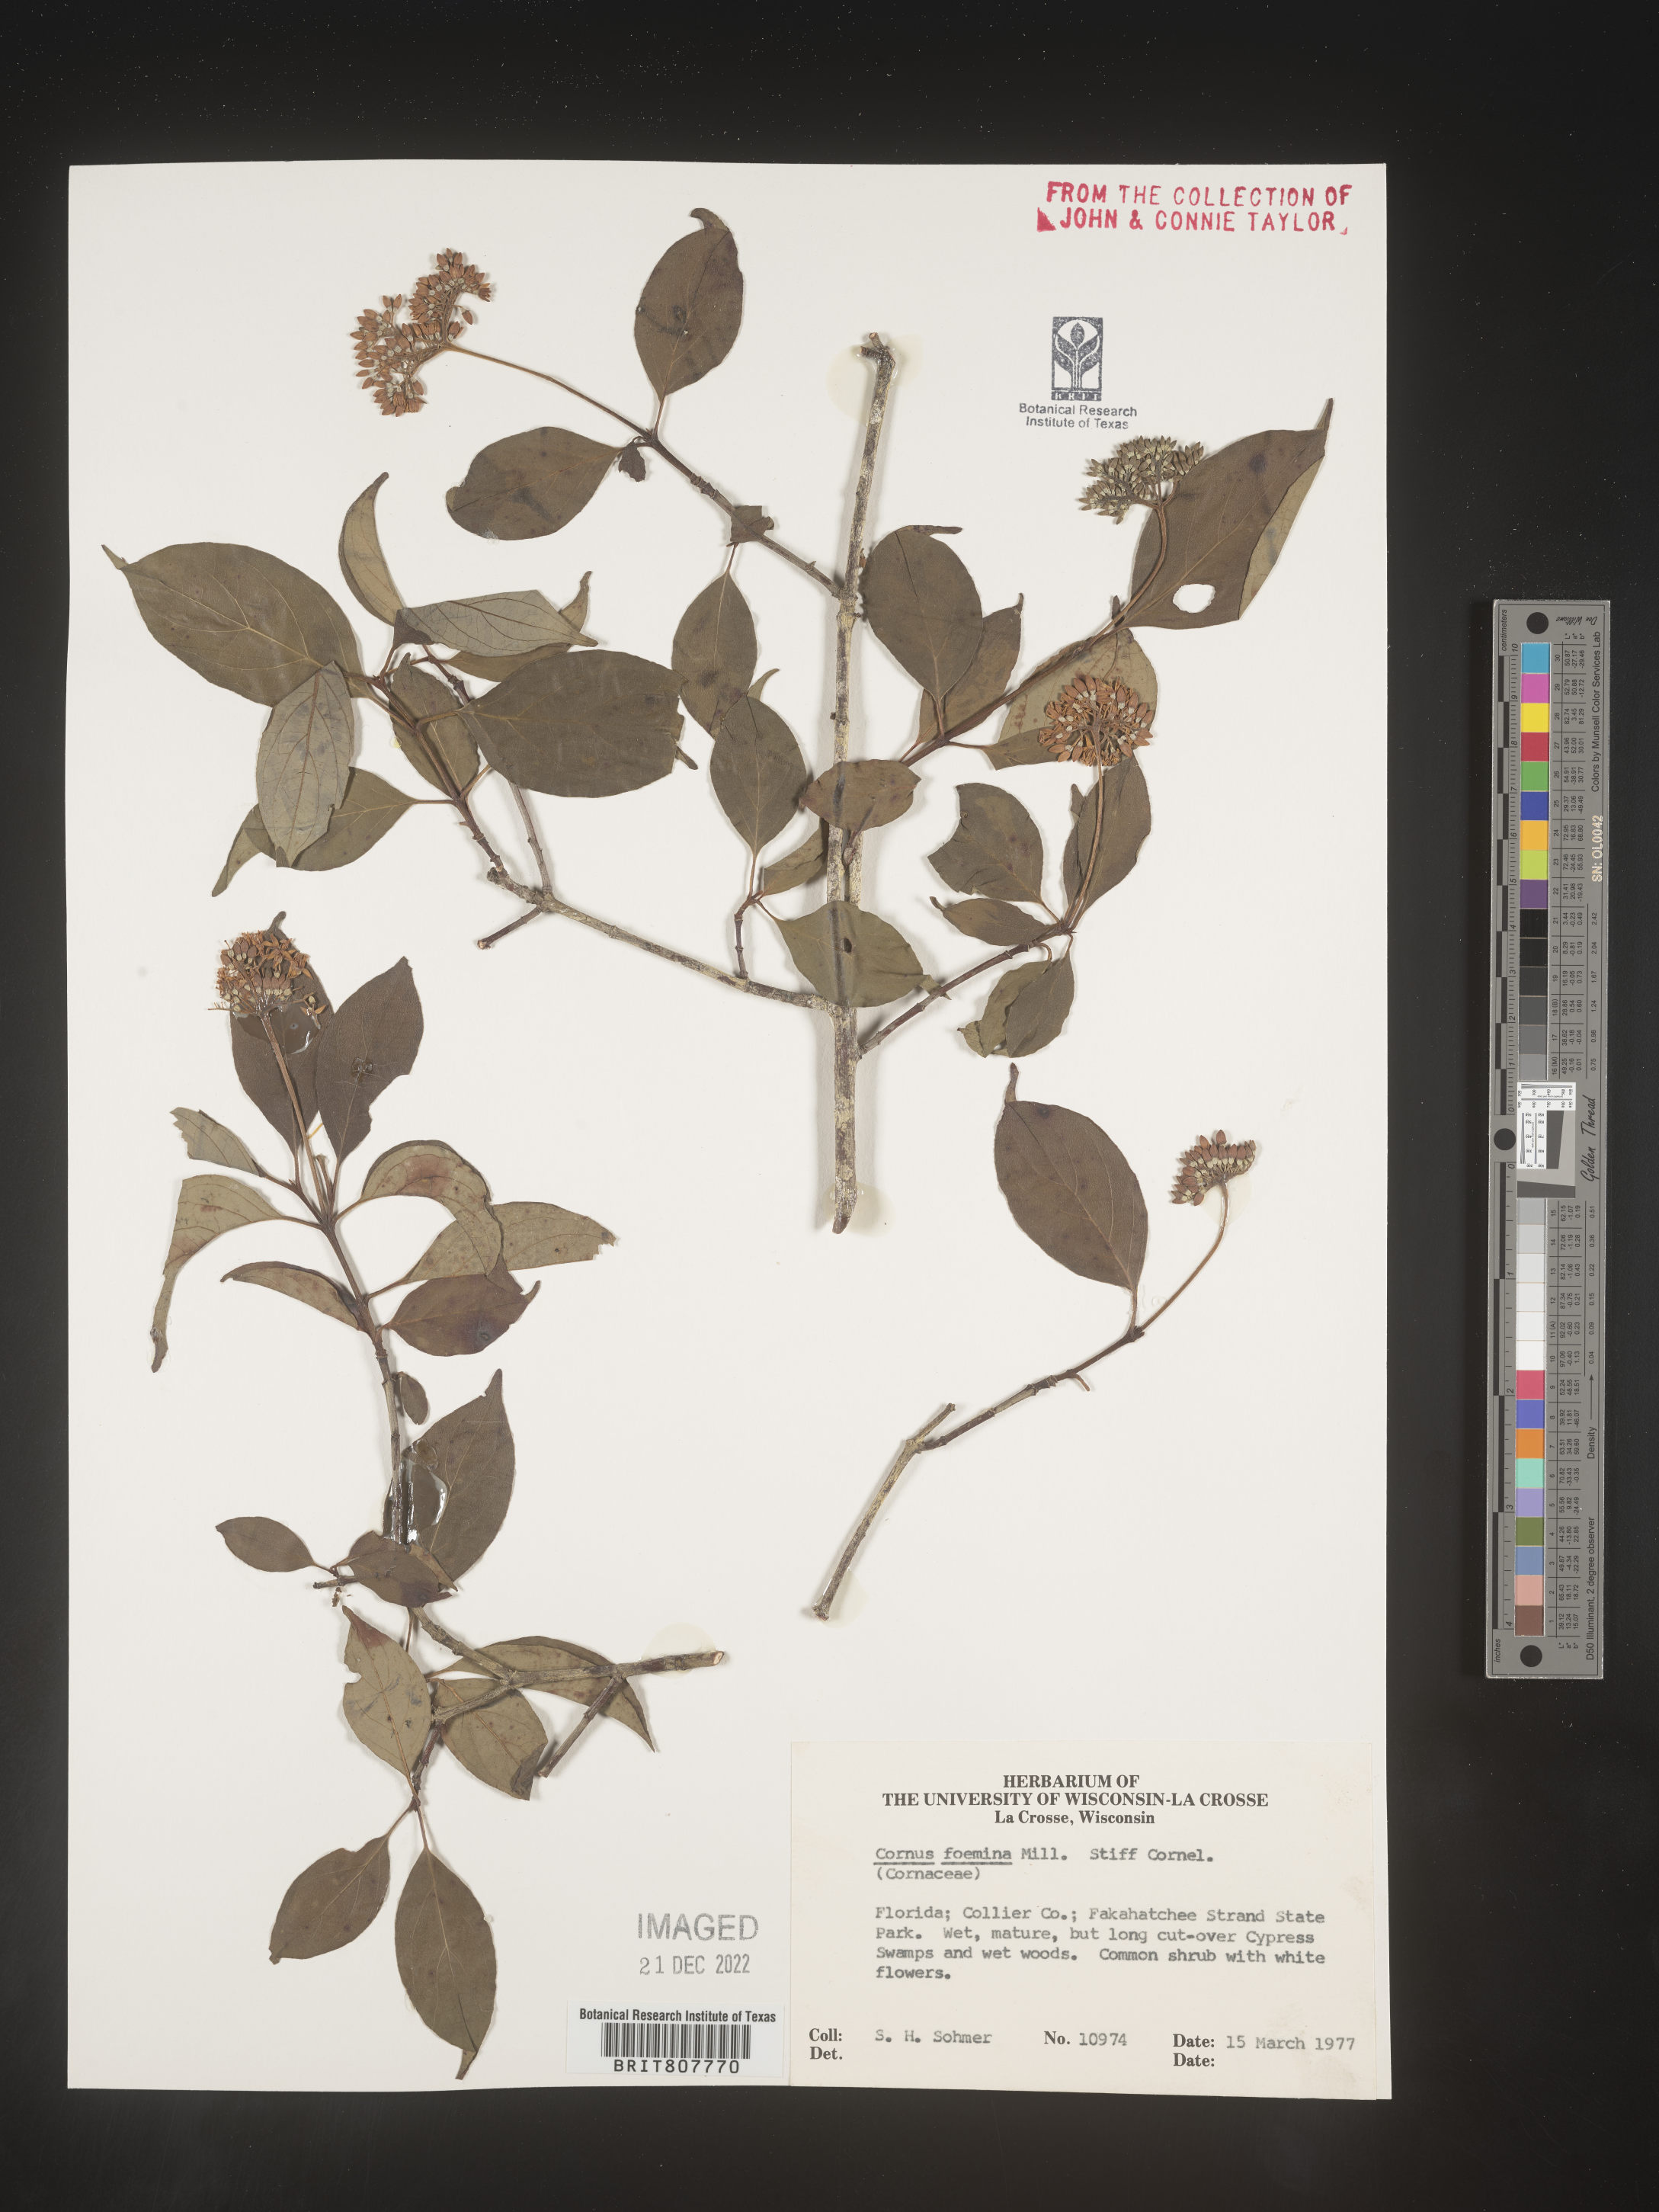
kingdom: Plantae
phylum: Tracheophyta
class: Magnoliopsida
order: Cornales
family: Cornaceae
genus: Cornus
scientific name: Cornus foemina
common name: Swamp dogwood
